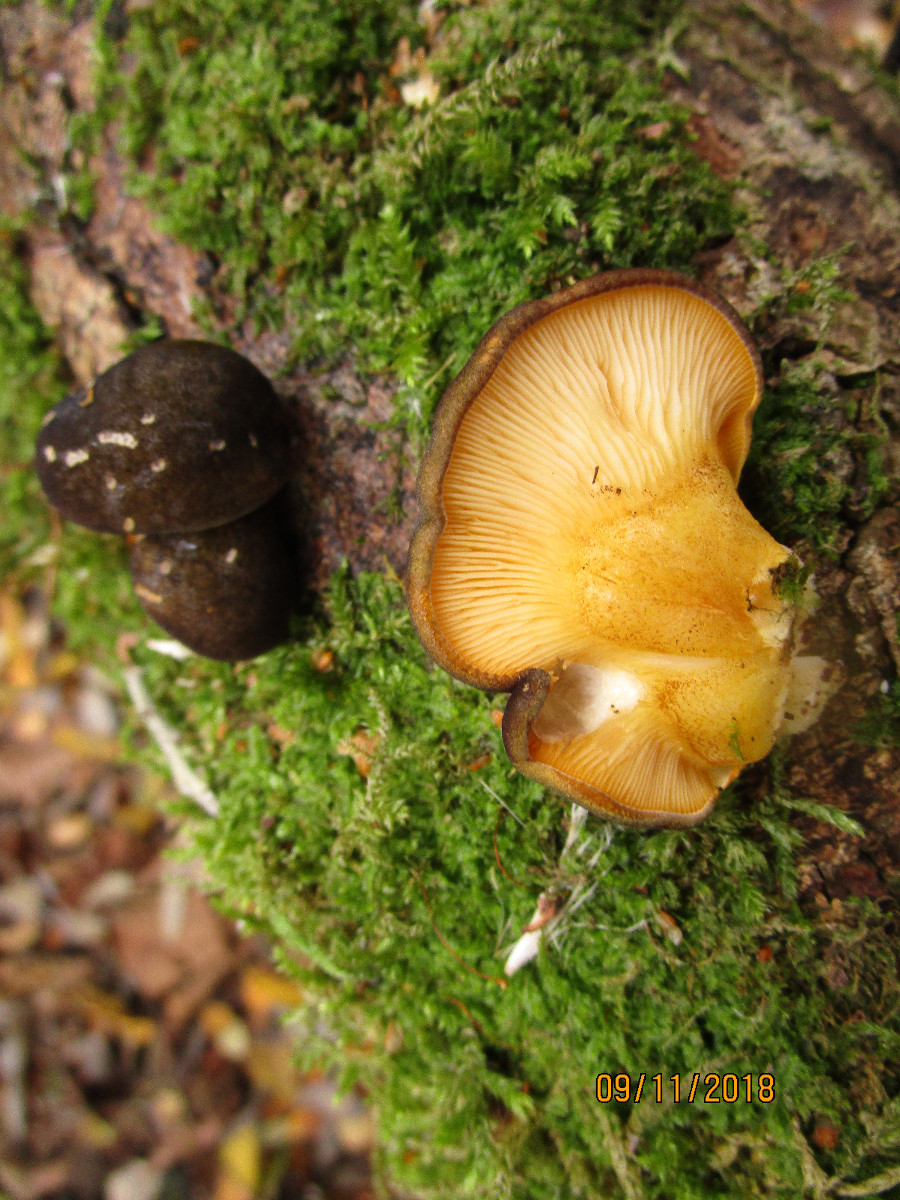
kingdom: Fungi
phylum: Basidiomycota
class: Agaricomycetes
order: Agaricales
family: Sarcomyxaceae
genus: Sarcomyxa
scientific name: Sarcomyxa serotina
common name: gummihat
